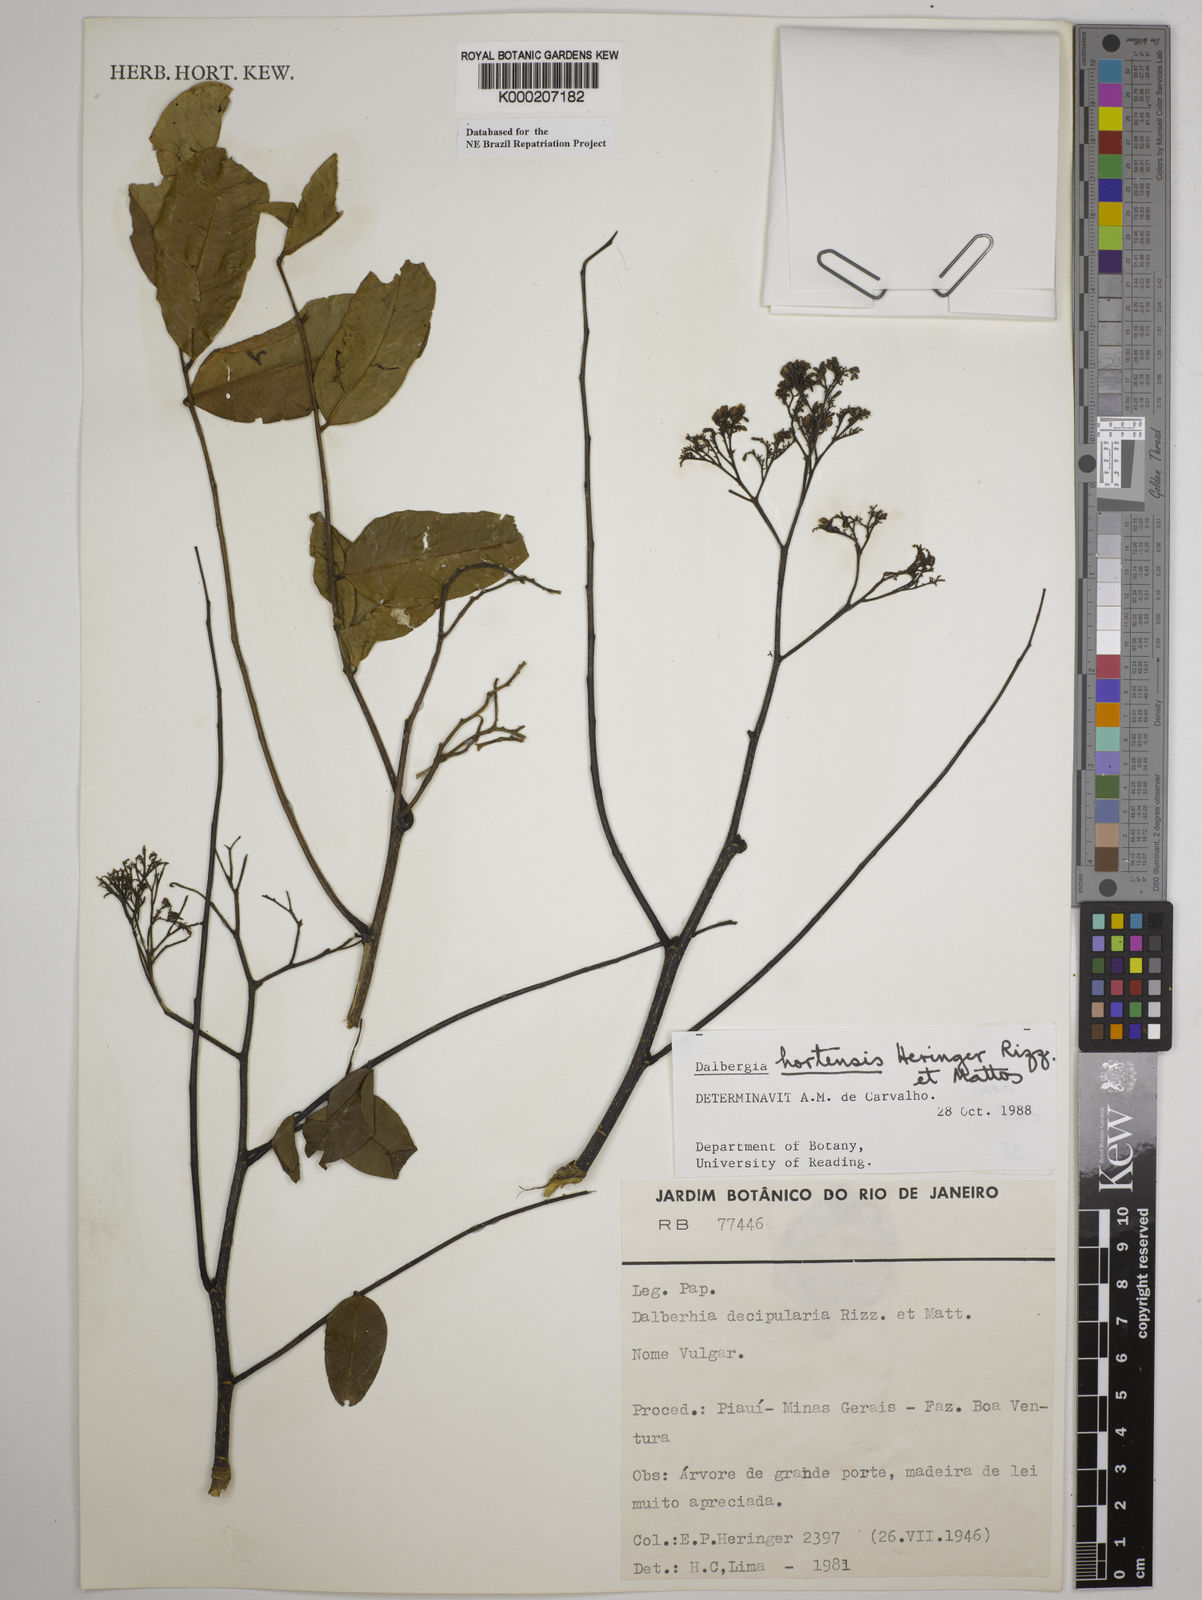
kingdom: Plantae
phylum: Tracheophyta
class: Magnoliopsida
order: Fabales
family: Fabaceae
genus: Dalbergia
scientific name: Dalbergia
